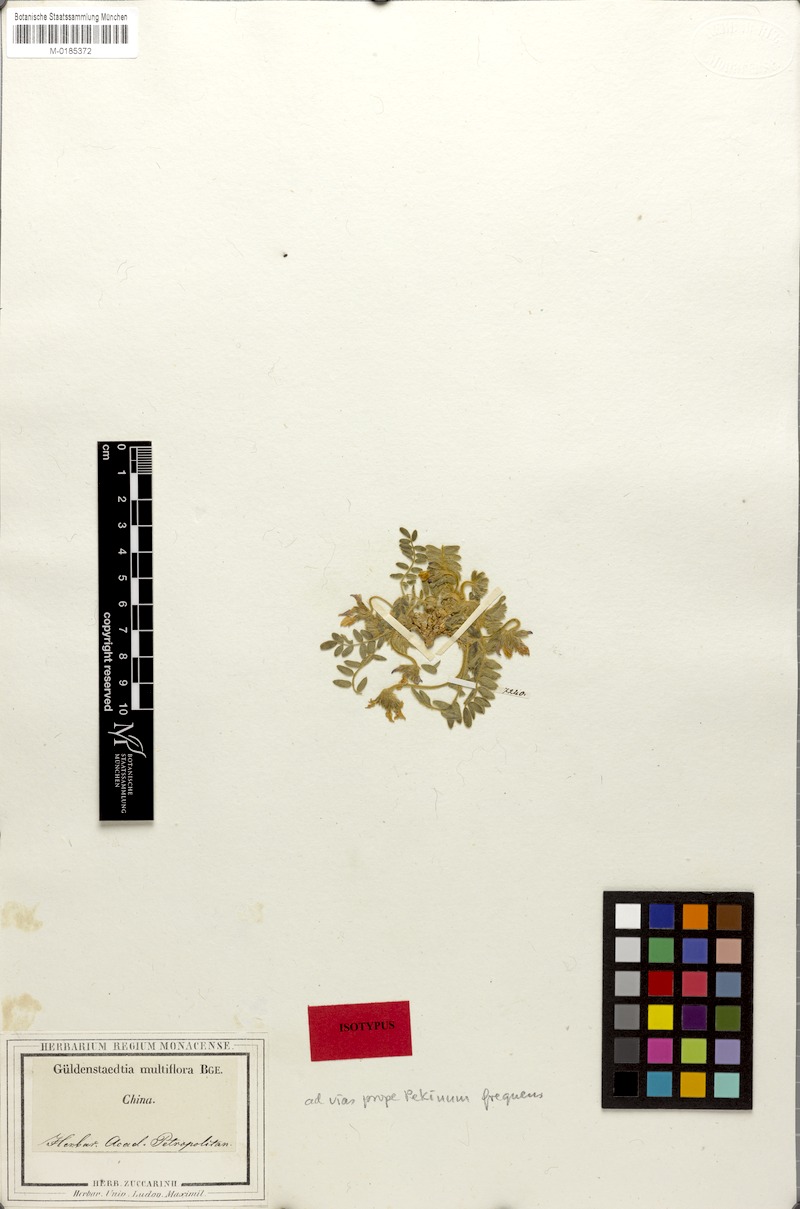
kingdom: Plantae
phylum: Tracheophyta
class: Magnoliopsida
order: Fabales
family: Fabaceae
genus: Gueldenstaedtia
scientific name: Gueldenstaedtia verna
